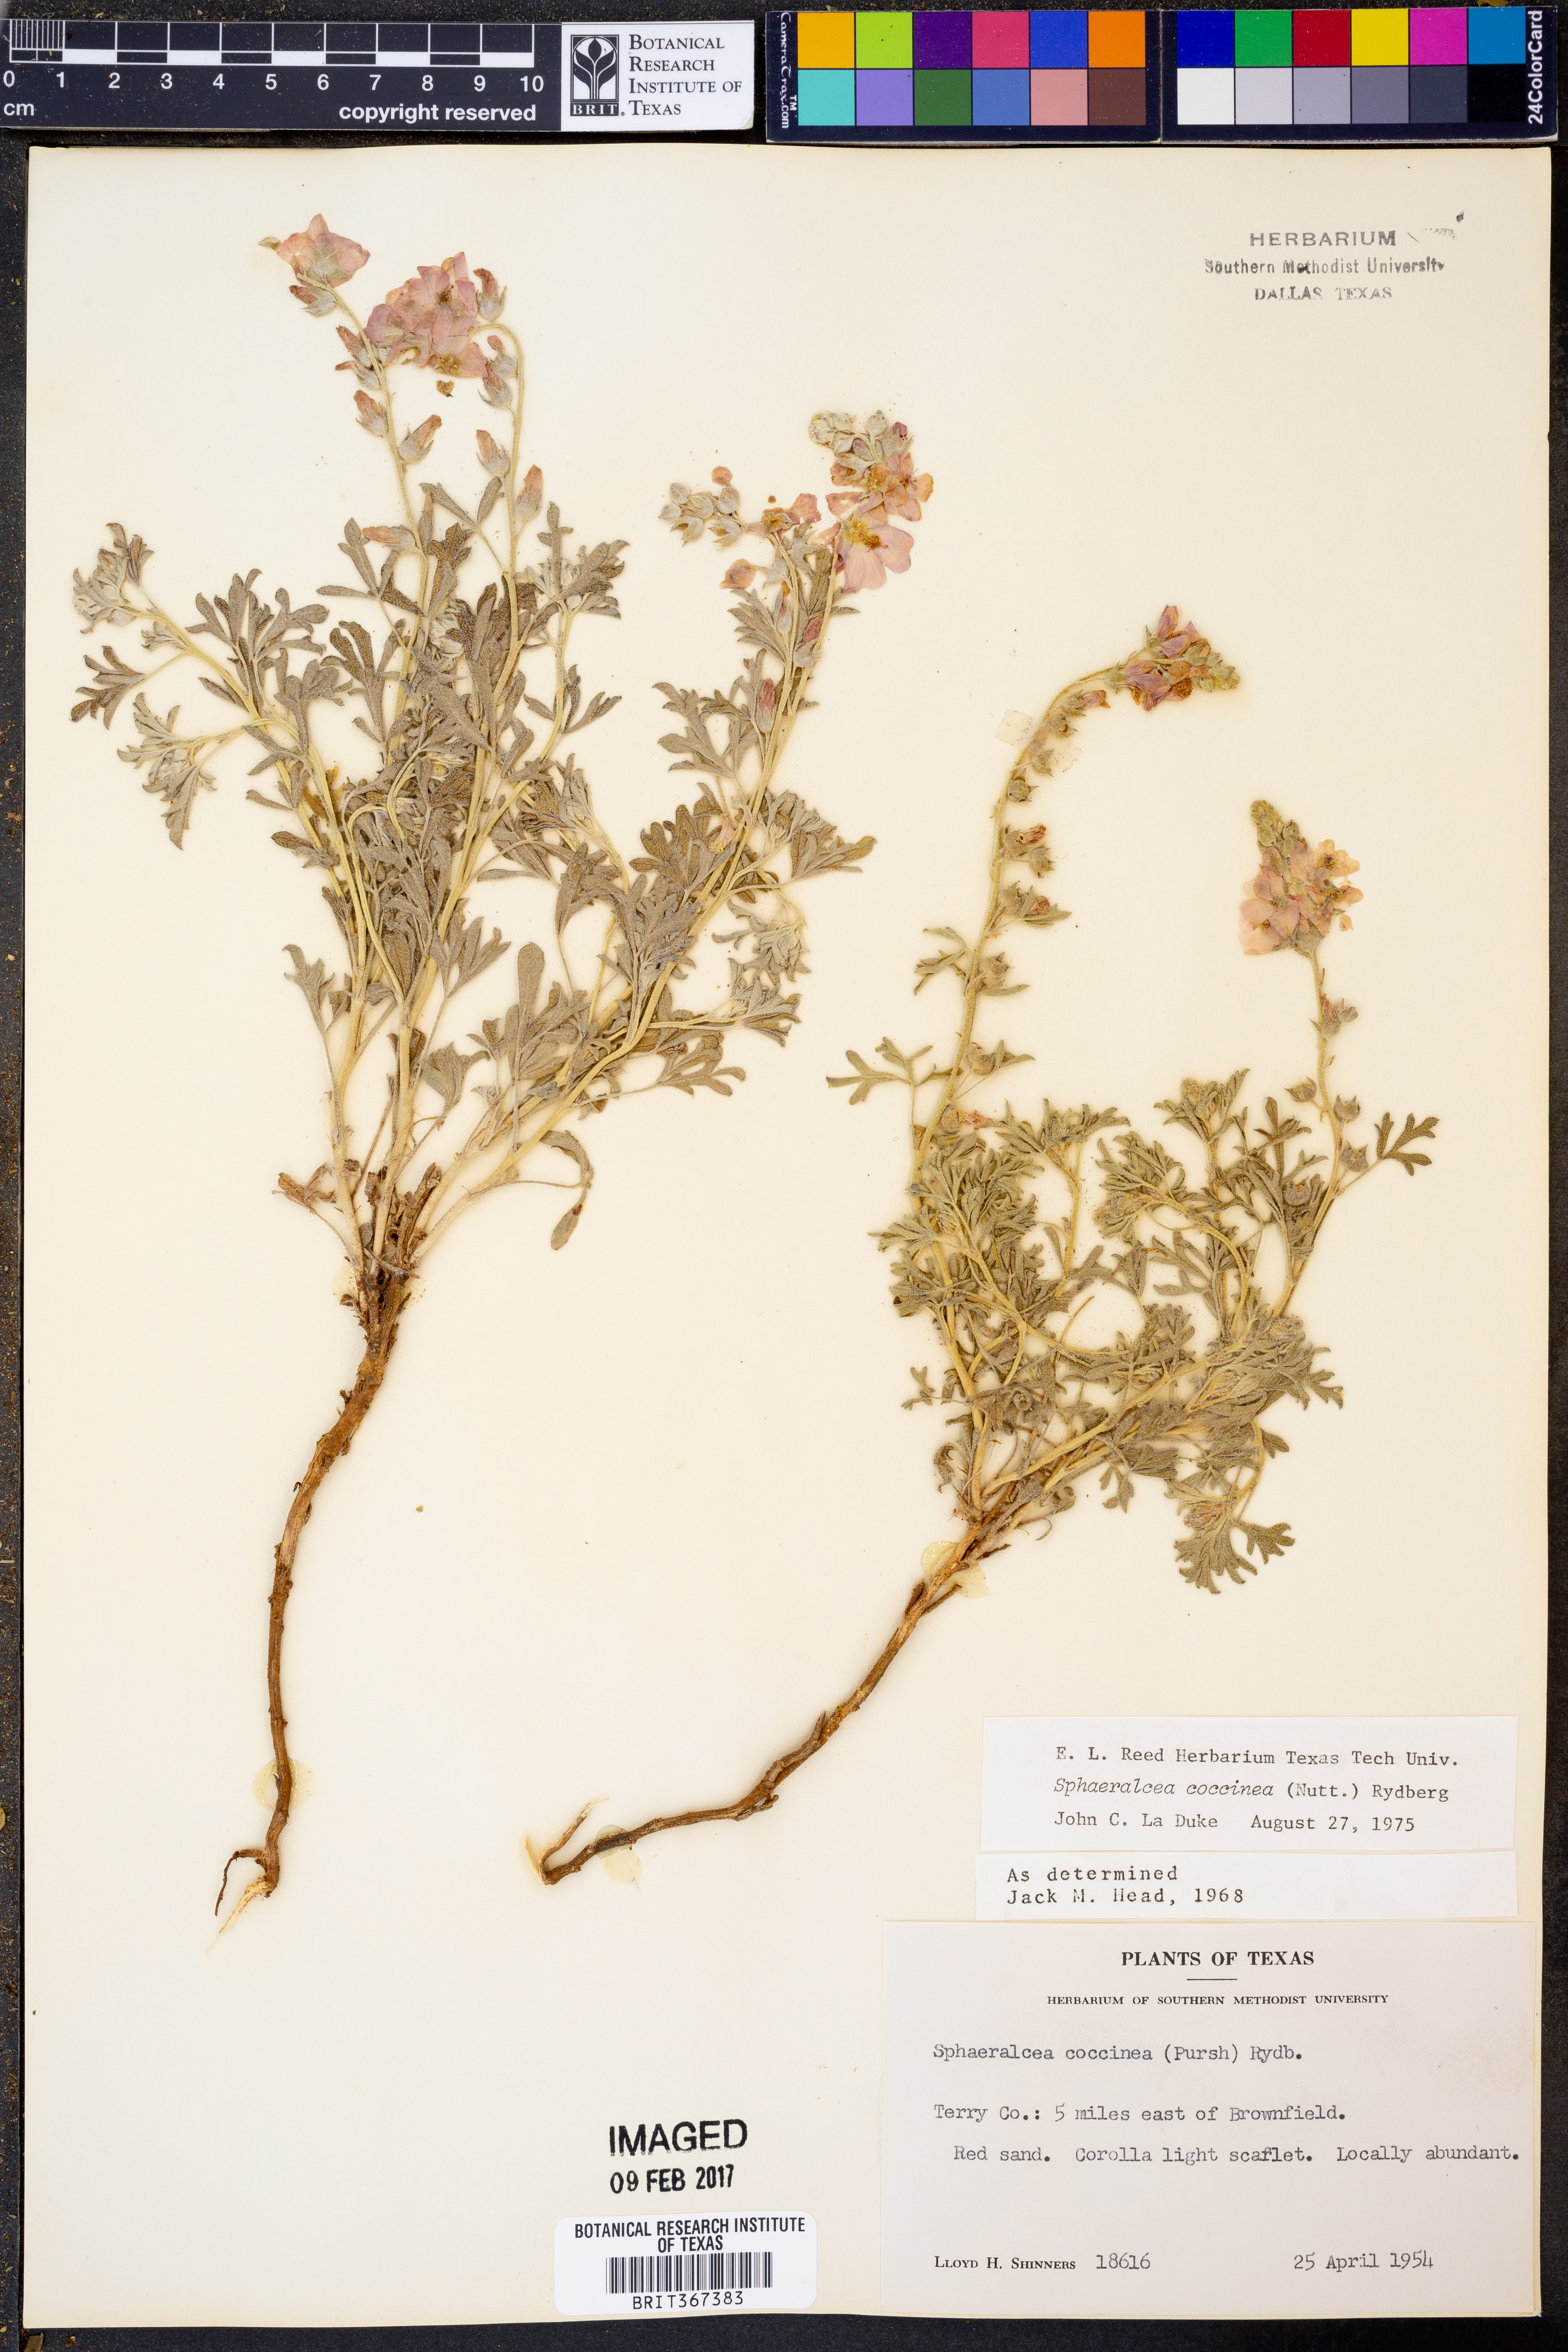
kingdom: Plantae
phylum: Tracheophyta
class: Magnoliopsida
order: Malvales
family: Malvaceae
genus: Sphaeralcea
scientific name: Sphaeralcea coccinea
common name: Moss-rose
